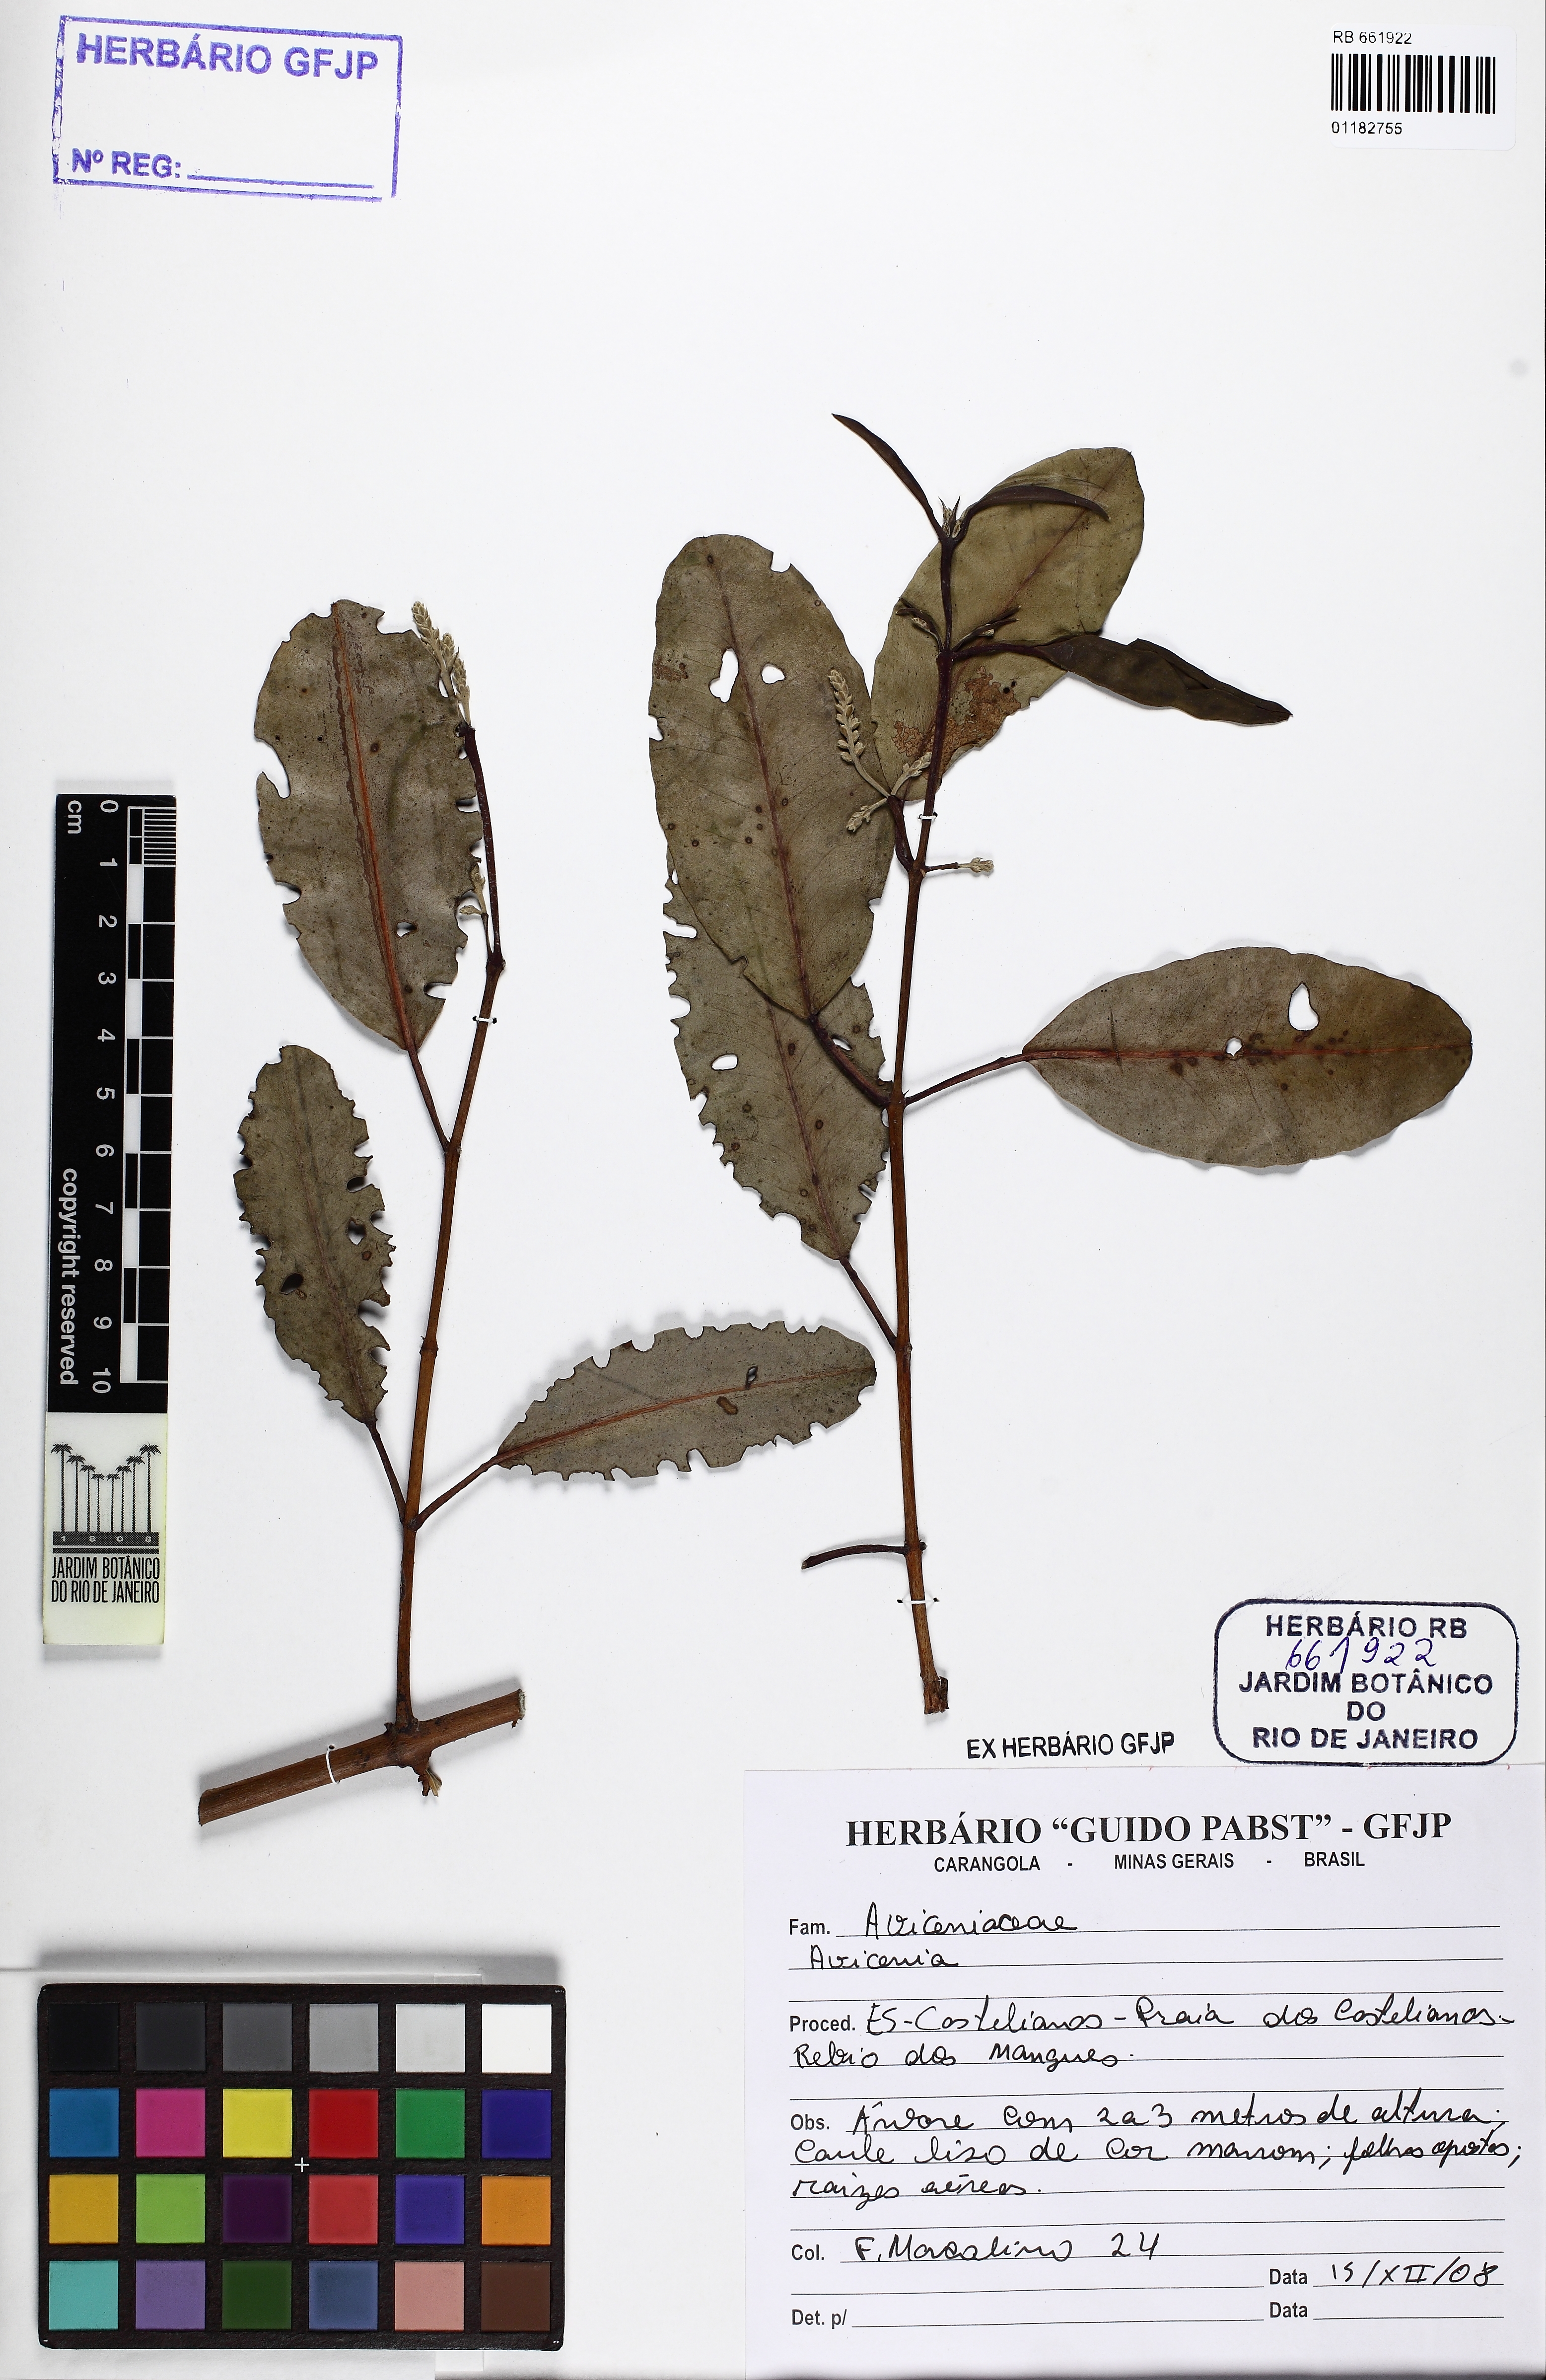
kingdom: Plantae
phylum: Tracheophyta
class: Magnoliopsida
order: Lamiales
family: Acanthaceae
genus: Avicennia
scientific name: Avicennia
